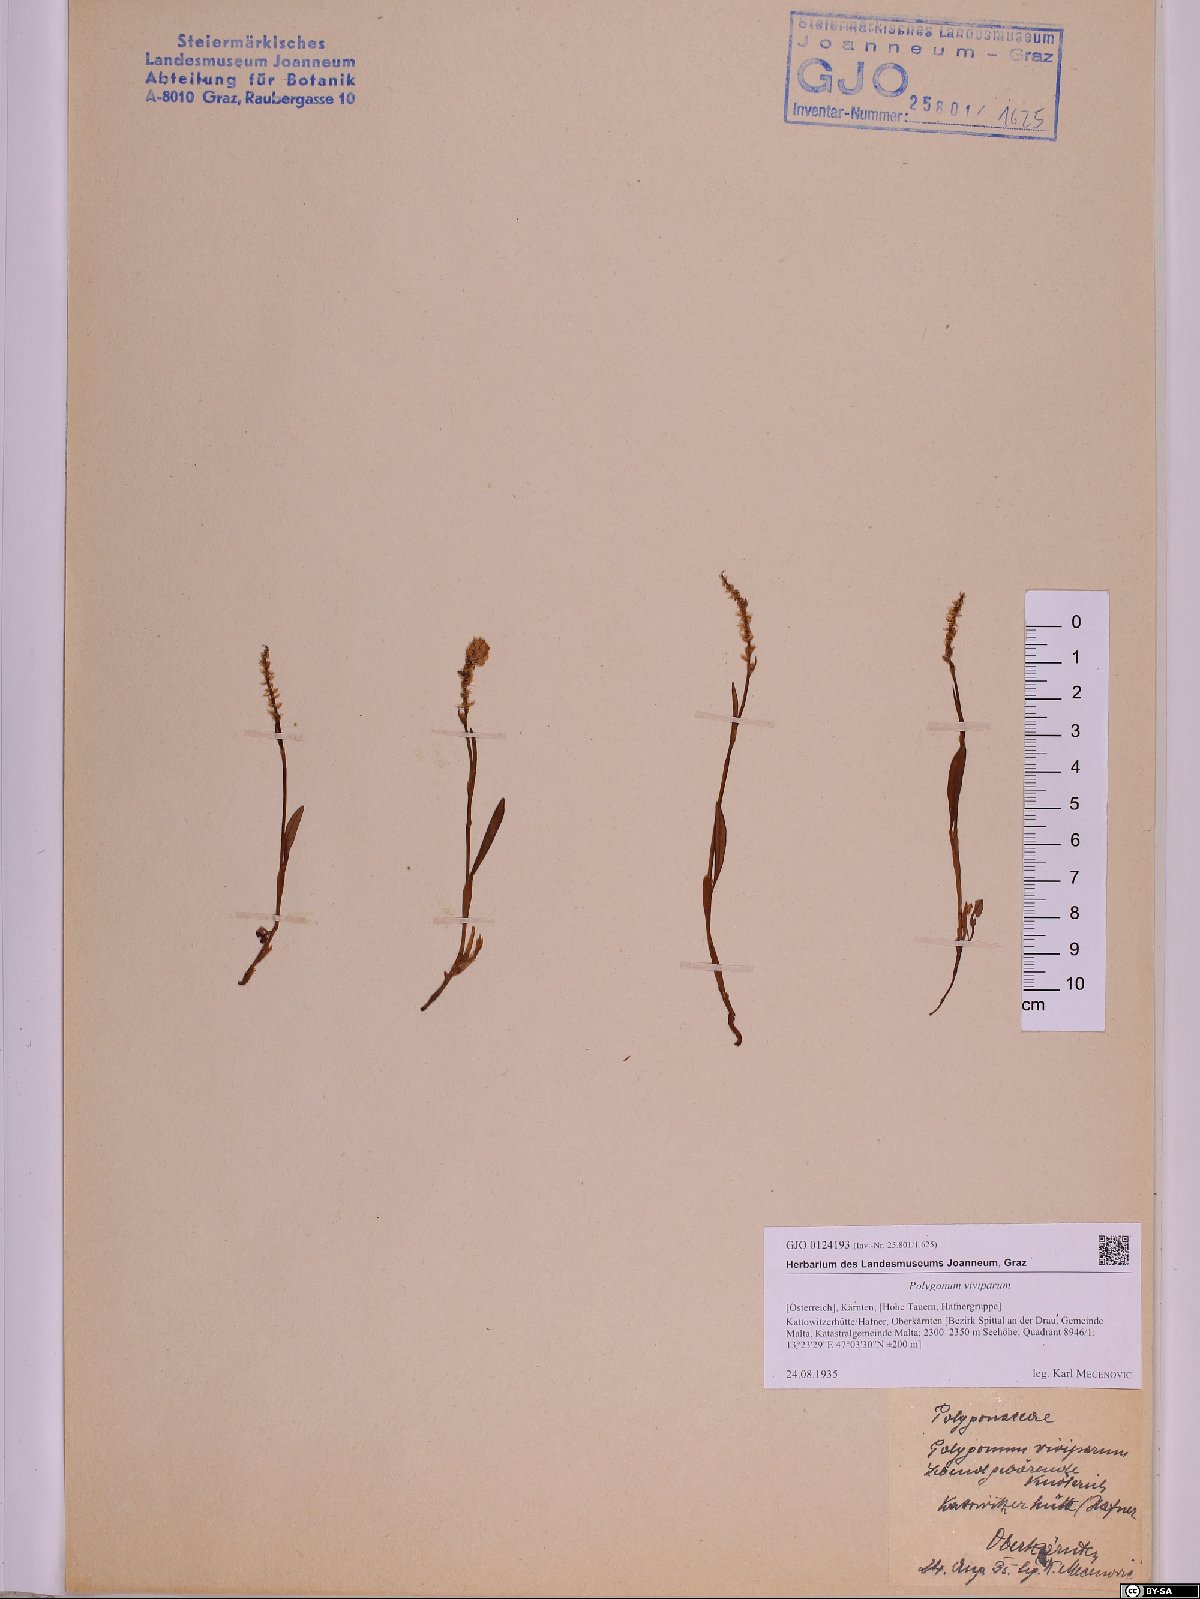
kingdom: Plantae
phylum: Tracheophyta
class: Magnoliopsida
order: Caryophyllales
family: Polygonaceae
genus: Bistorta
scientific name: Bistorta vivipara
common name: Alpine bistort
